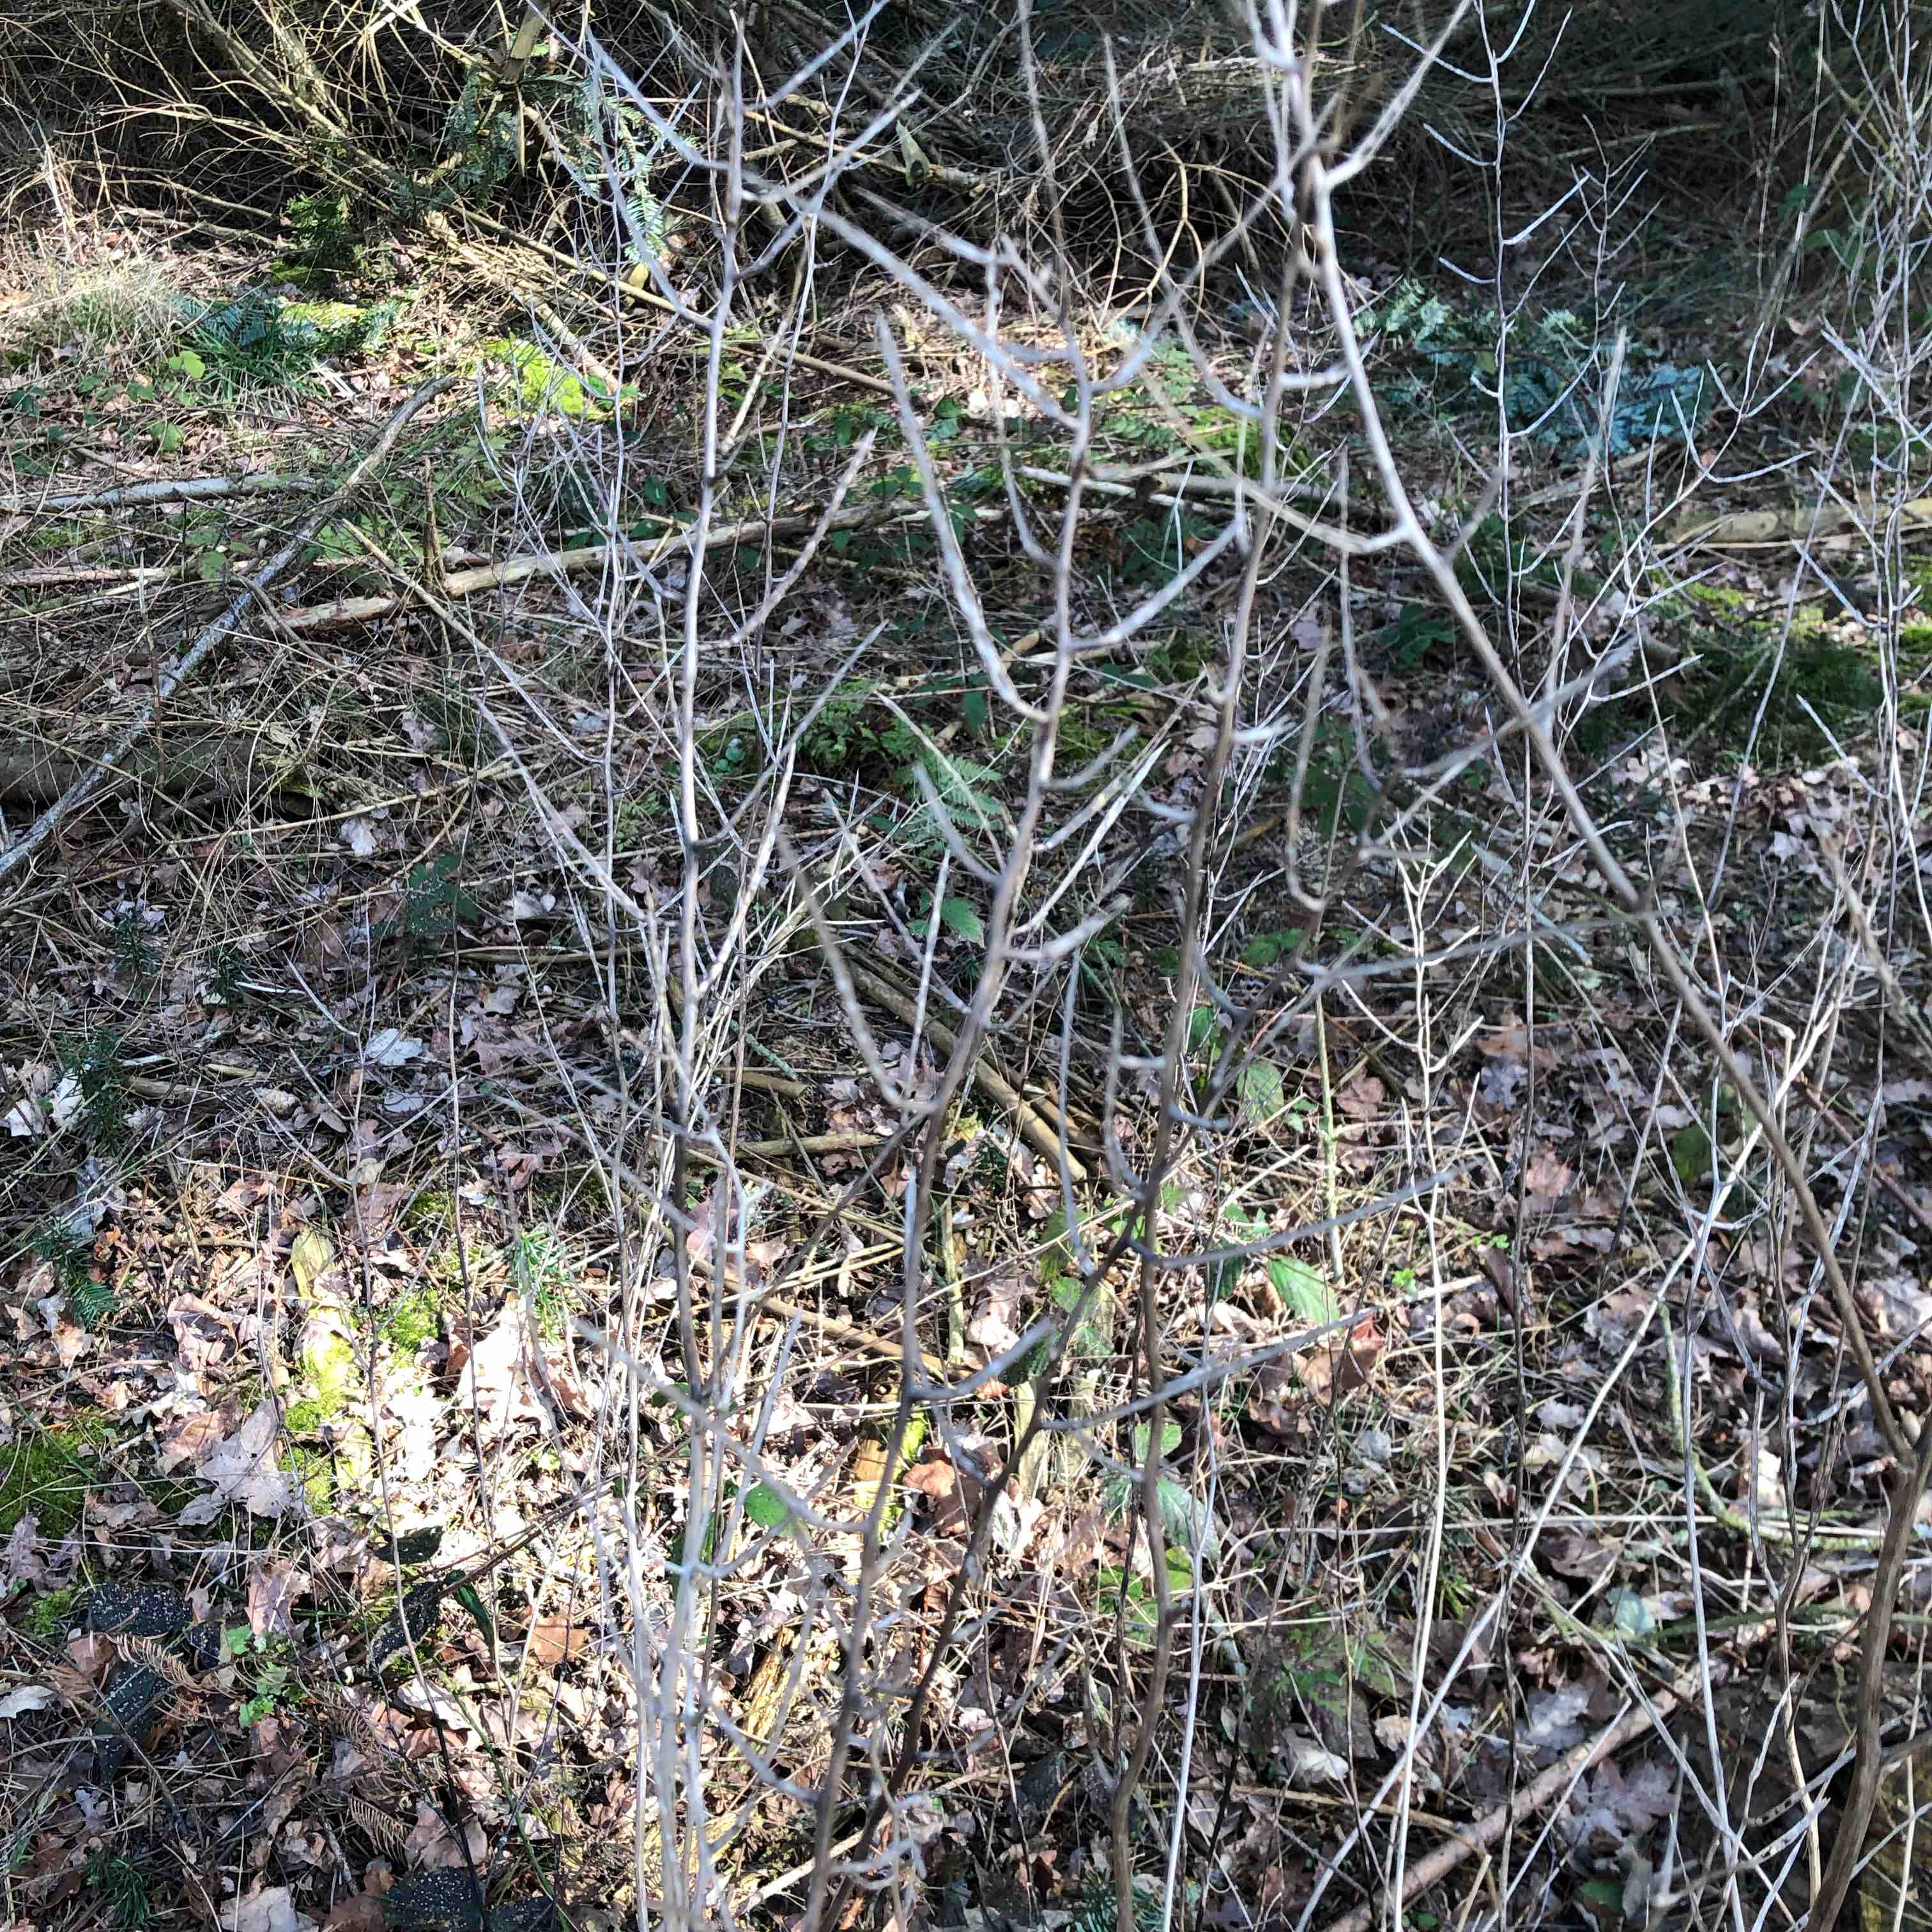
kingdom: Fungi
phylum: Ascomycota
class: Dothideomycetes
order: Pleosporales
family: Phaeosphaeriaceae
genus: Phaeosphaeria
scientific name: Phaeosphaeria sowerbyi
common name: kål-kulkegle
